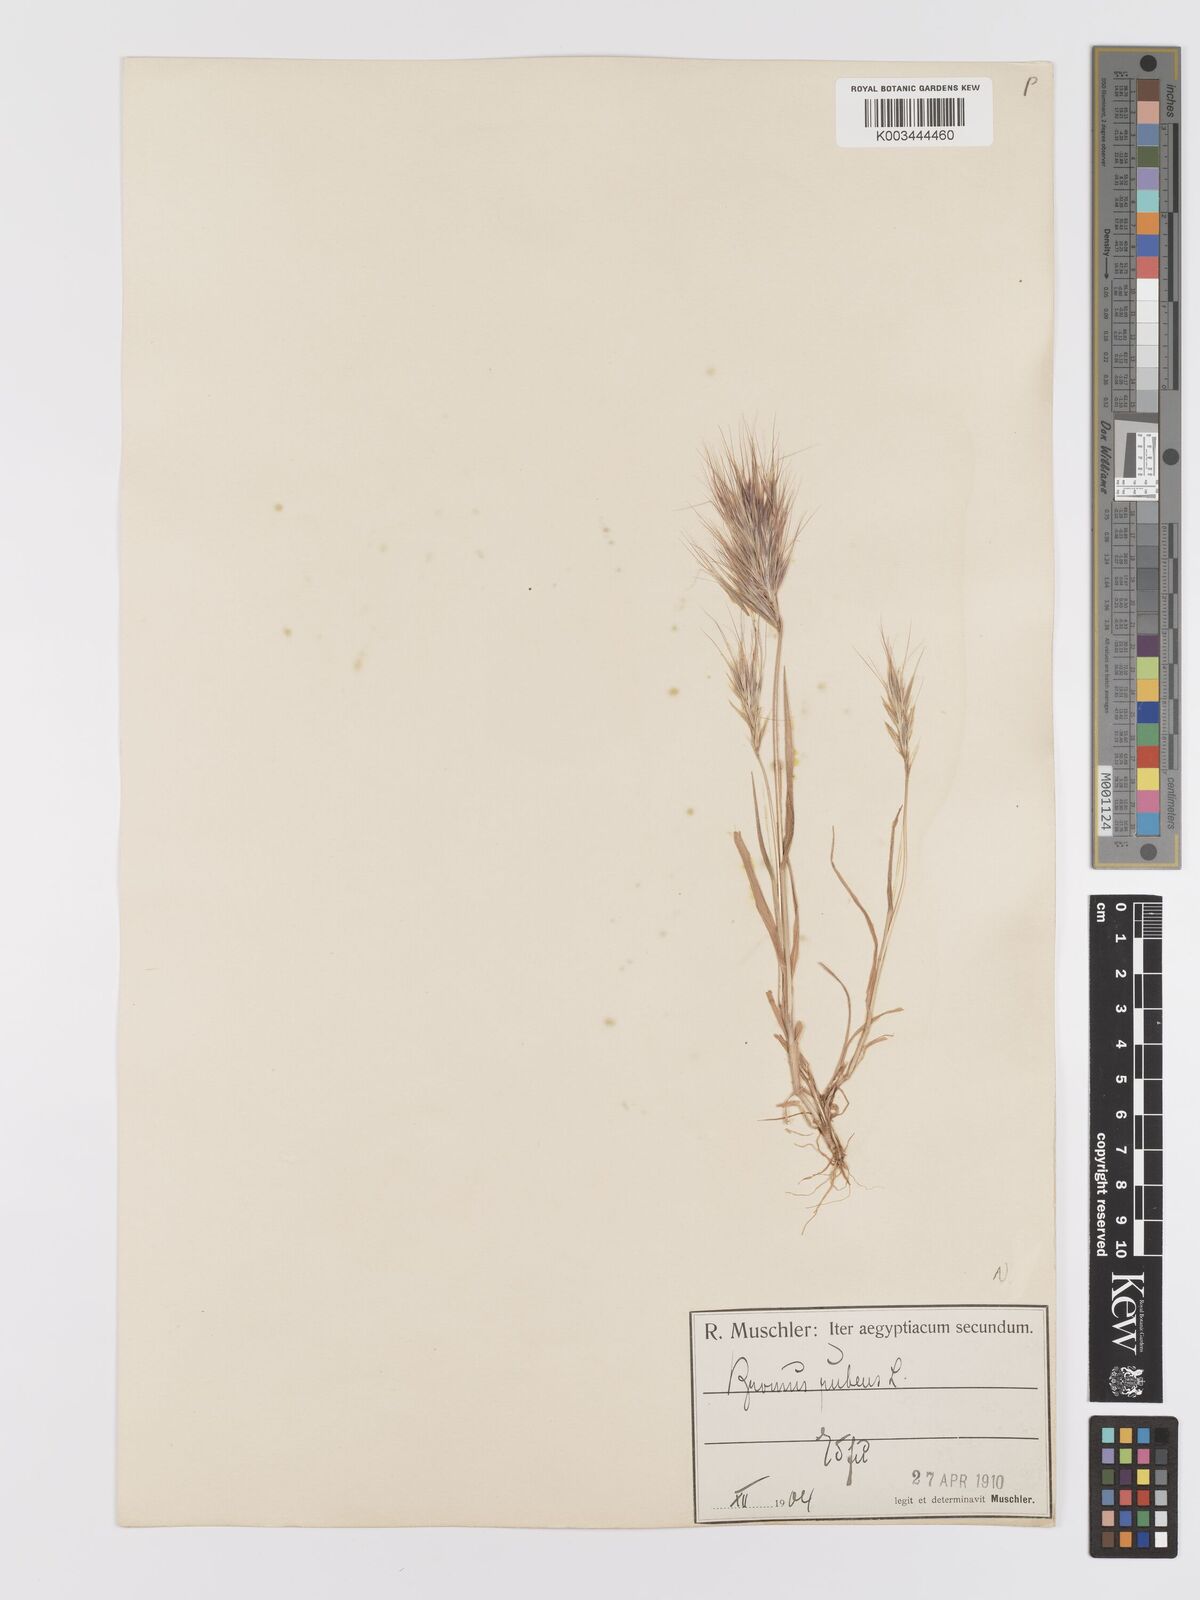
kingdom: Plantae
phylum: Tracheophyta
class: Liliopsida
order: Poales
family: Poaceae
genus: Bromus
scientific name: Bromus rubens
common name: Red brome
